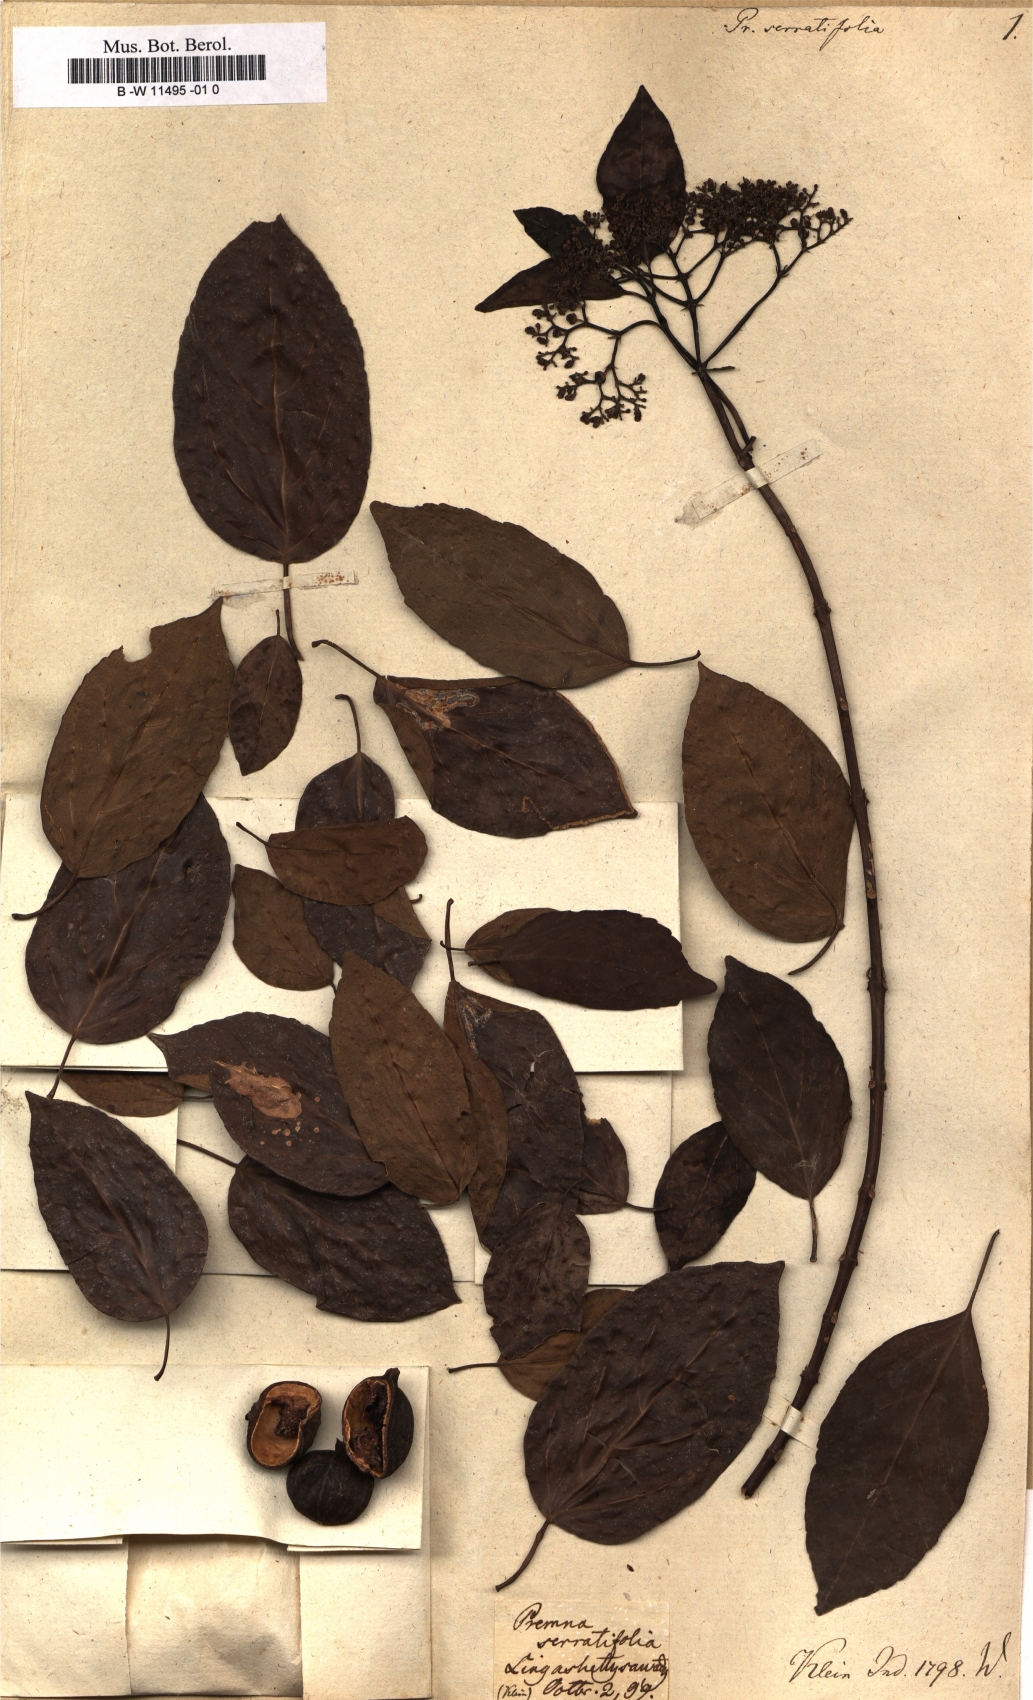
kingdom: Plantae
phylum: Tracheophyta
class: Magnoliopsida
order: Lamiales
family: Lamiaceae
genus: Premna
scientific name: Premna serratifolia
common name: Bastard guelder
